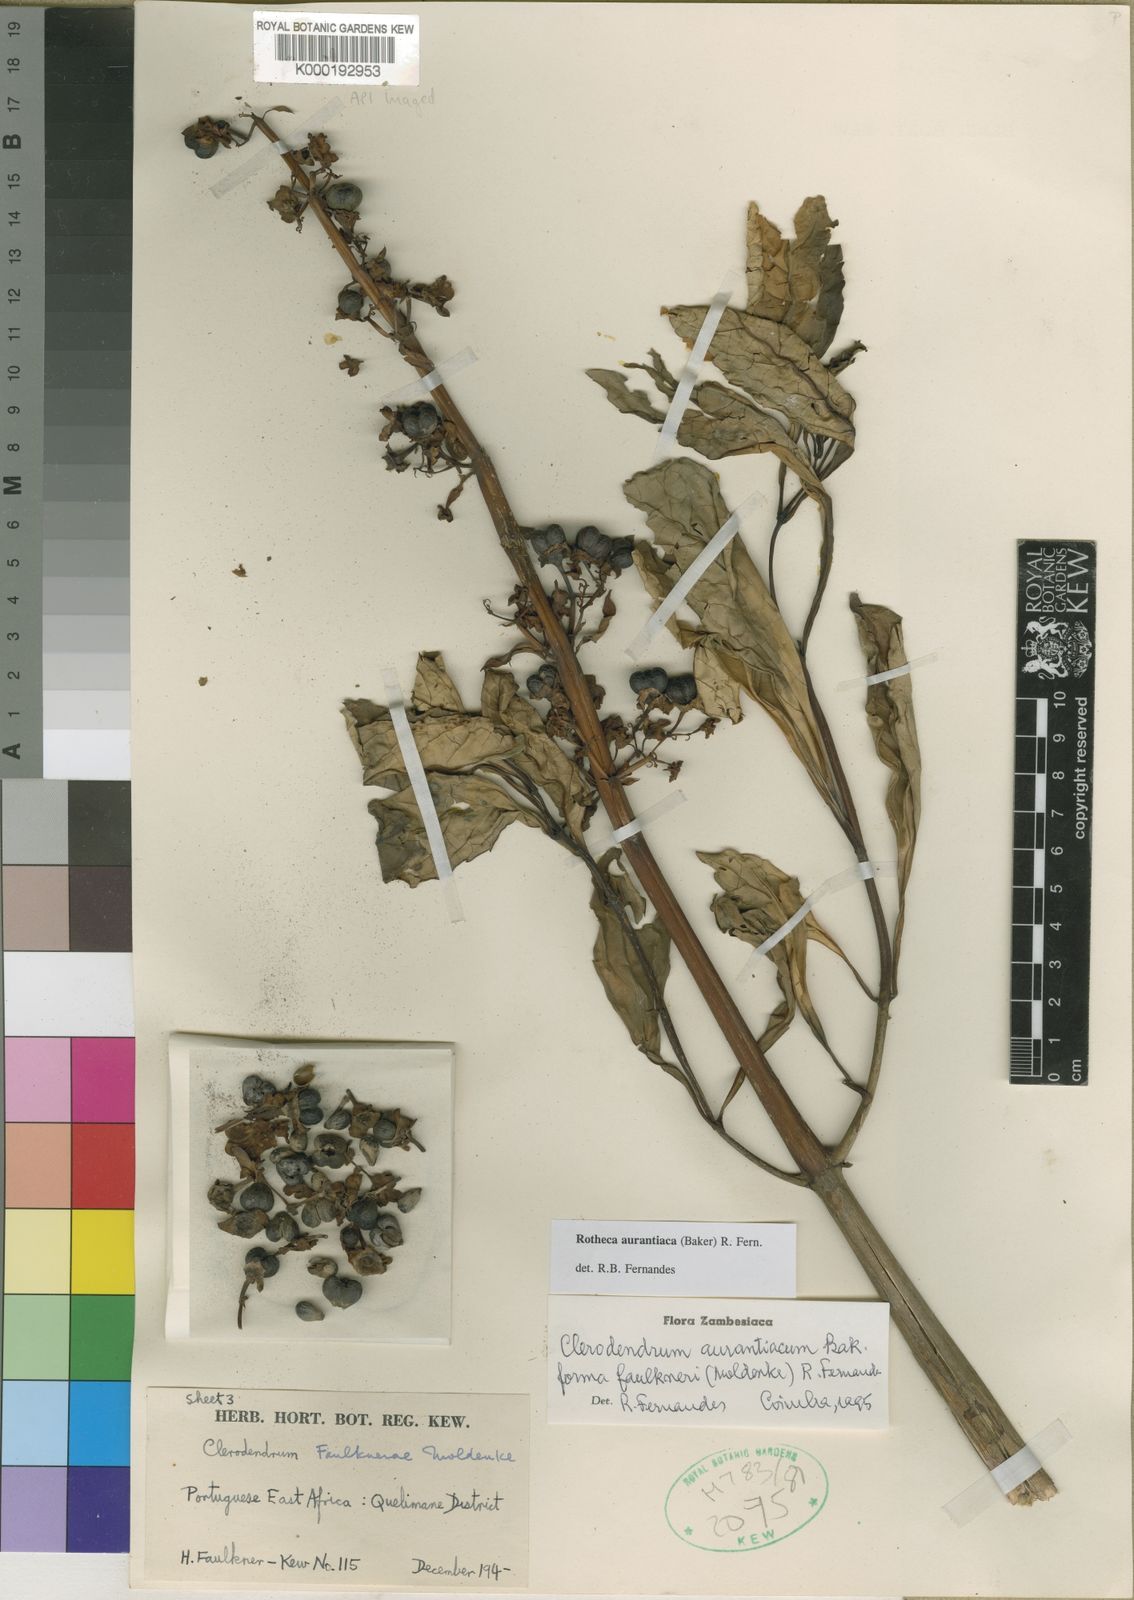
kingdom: Plantae
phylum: Tracheophyta
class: Magnoliopsida
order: Lamiales
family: Lamiaceae
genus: Rotheca
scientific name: Rotheca aurantiaca
